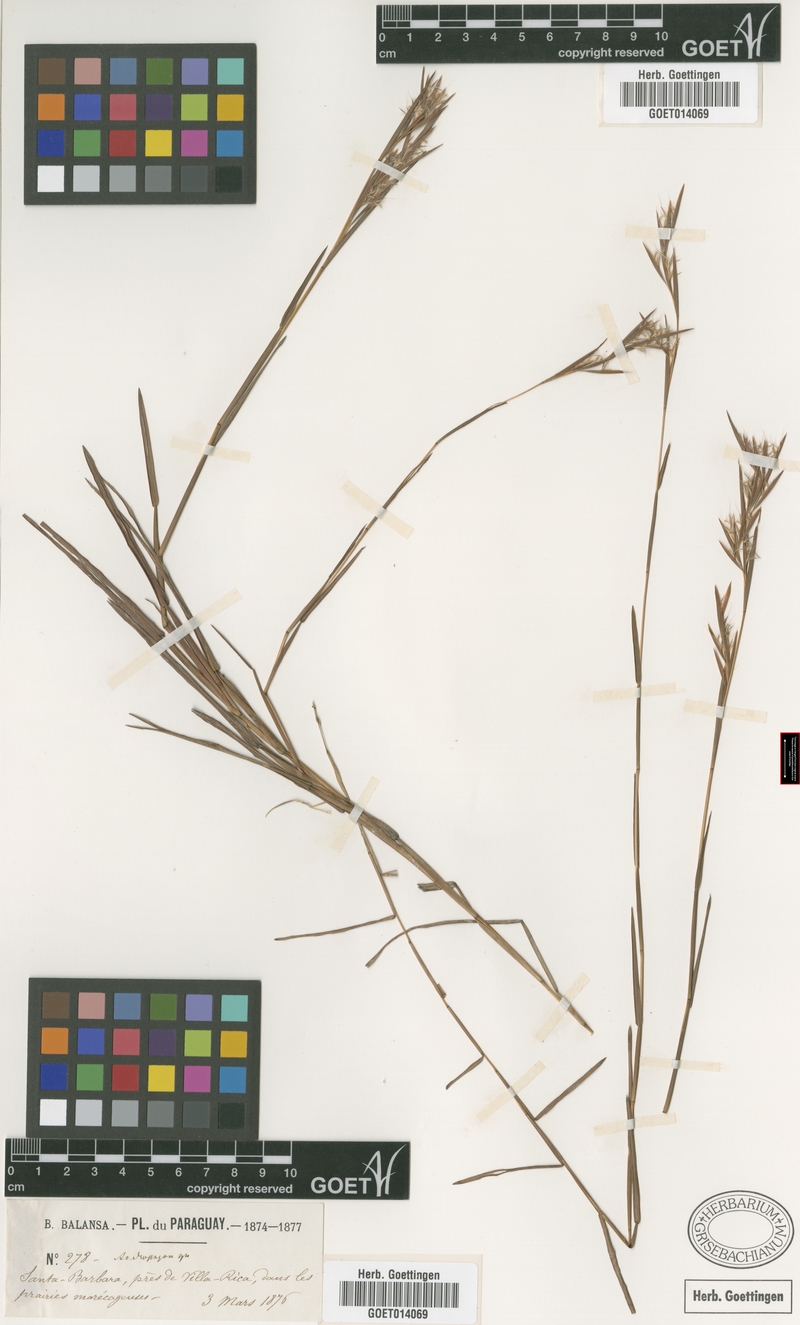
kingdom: Plantae
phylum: Tracheophyta
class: Liliopsida
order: Poales
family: Poaceae
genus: Schizachyrium
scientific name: Schizachyrium gracilipes
